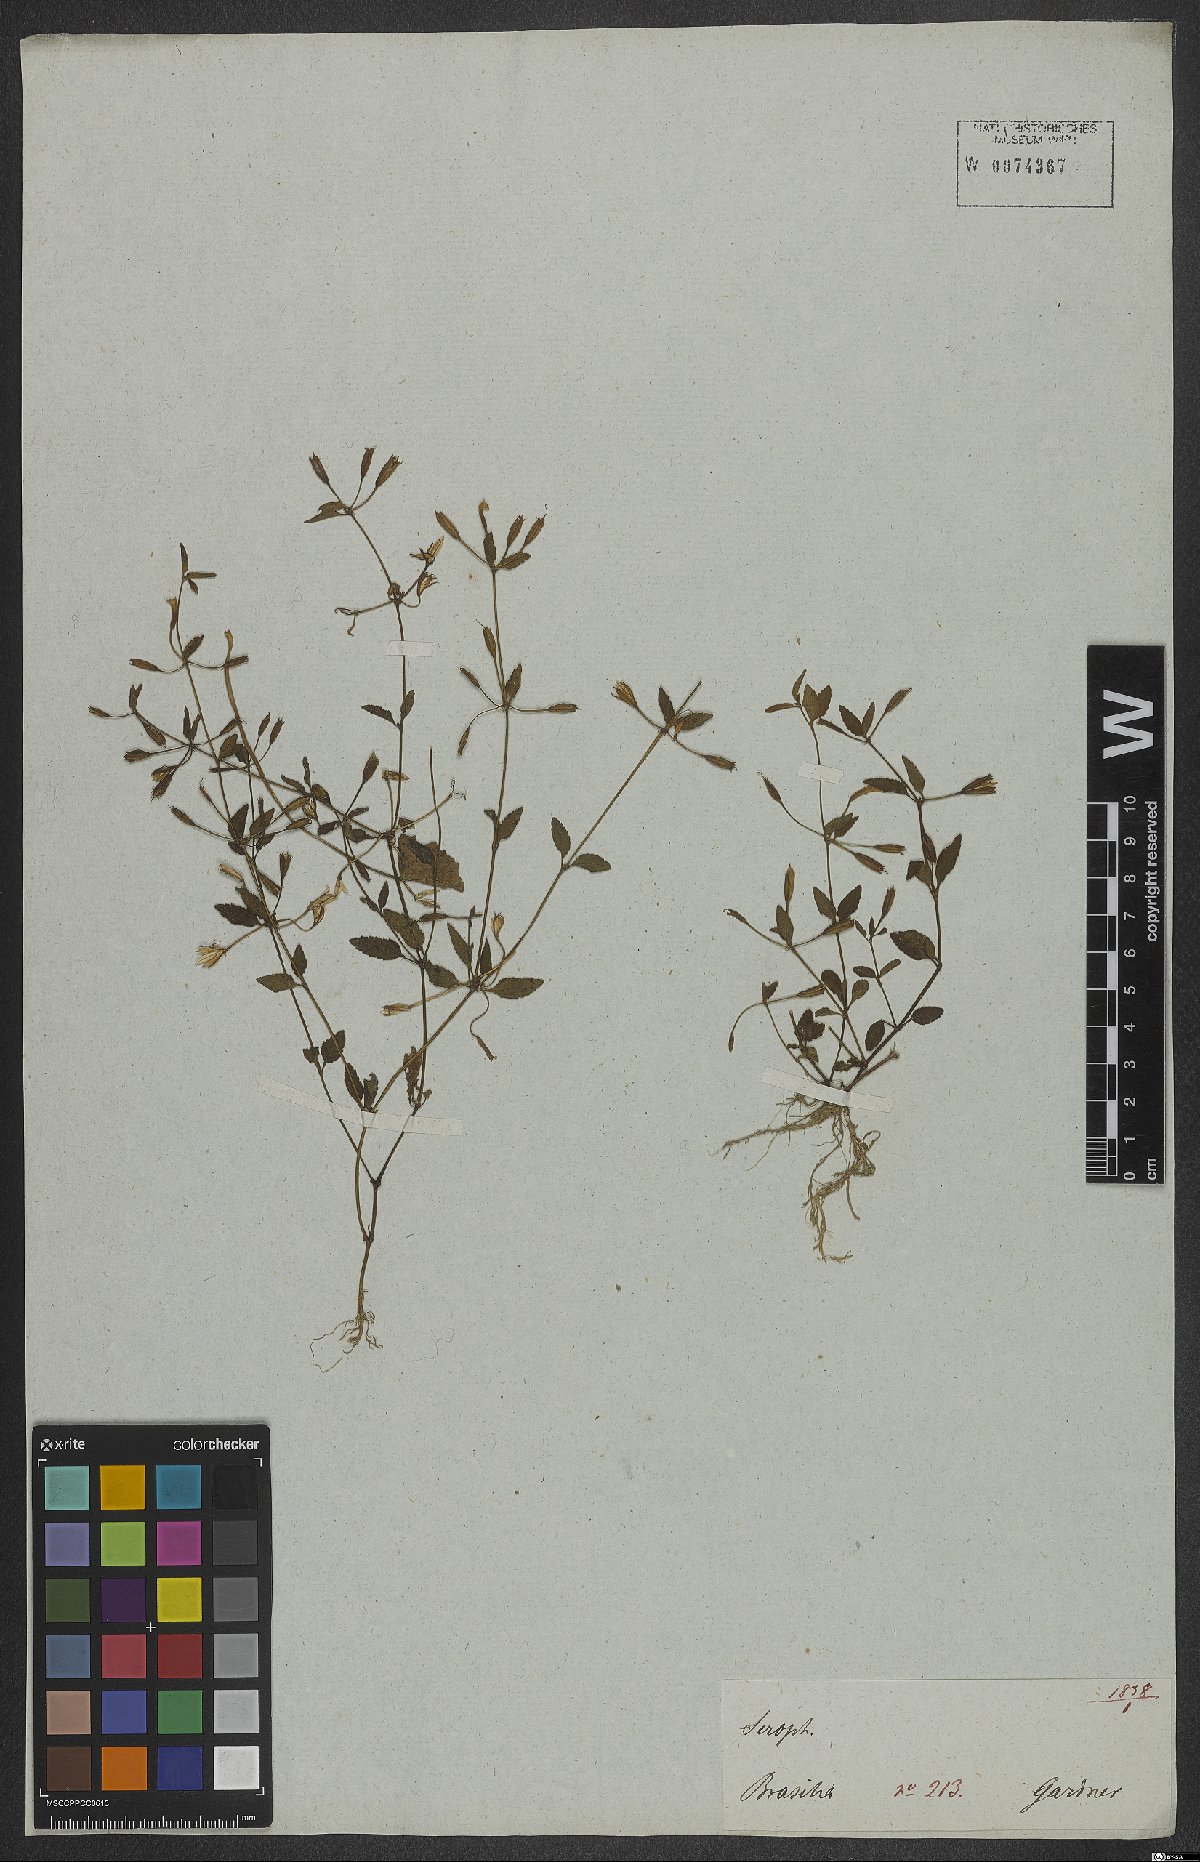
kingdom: Plantae
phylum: Tracheophyta
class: Magnoliopsida
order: Lamiales
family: Linderniaceae
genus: Lindernia
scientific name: Lindernia
